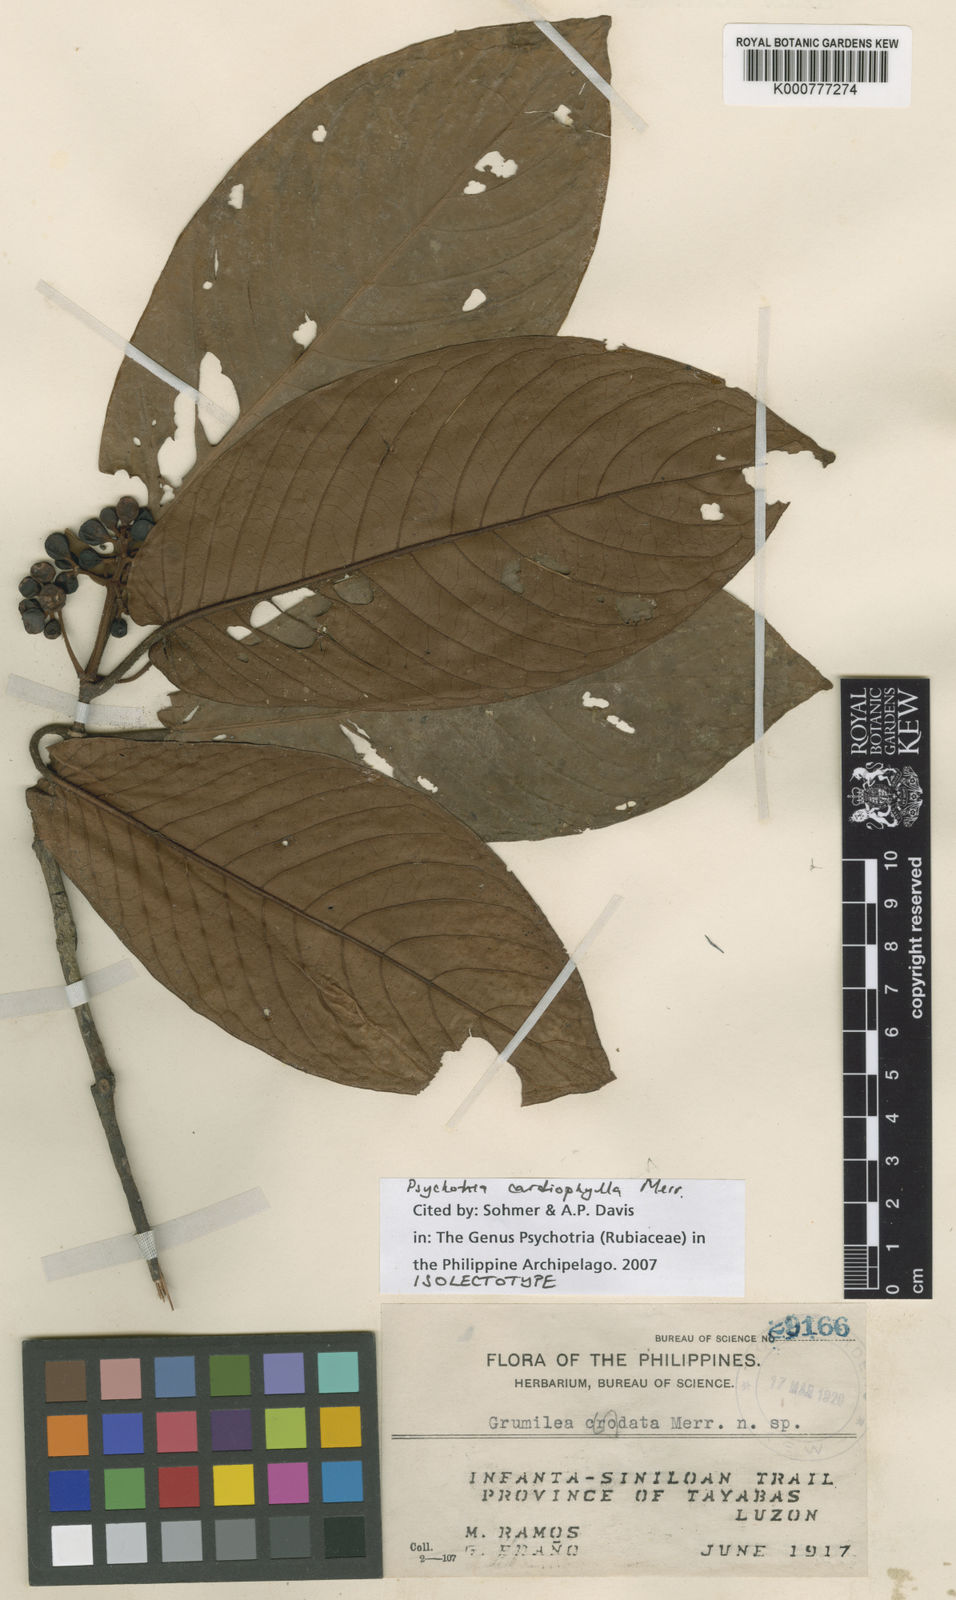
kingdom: Plantae
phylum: Tracheophyta
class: Magnoliopsida
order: Gentianales
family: Rubiaceae
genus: Psychotria
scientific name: Psychotria cardiophylla
